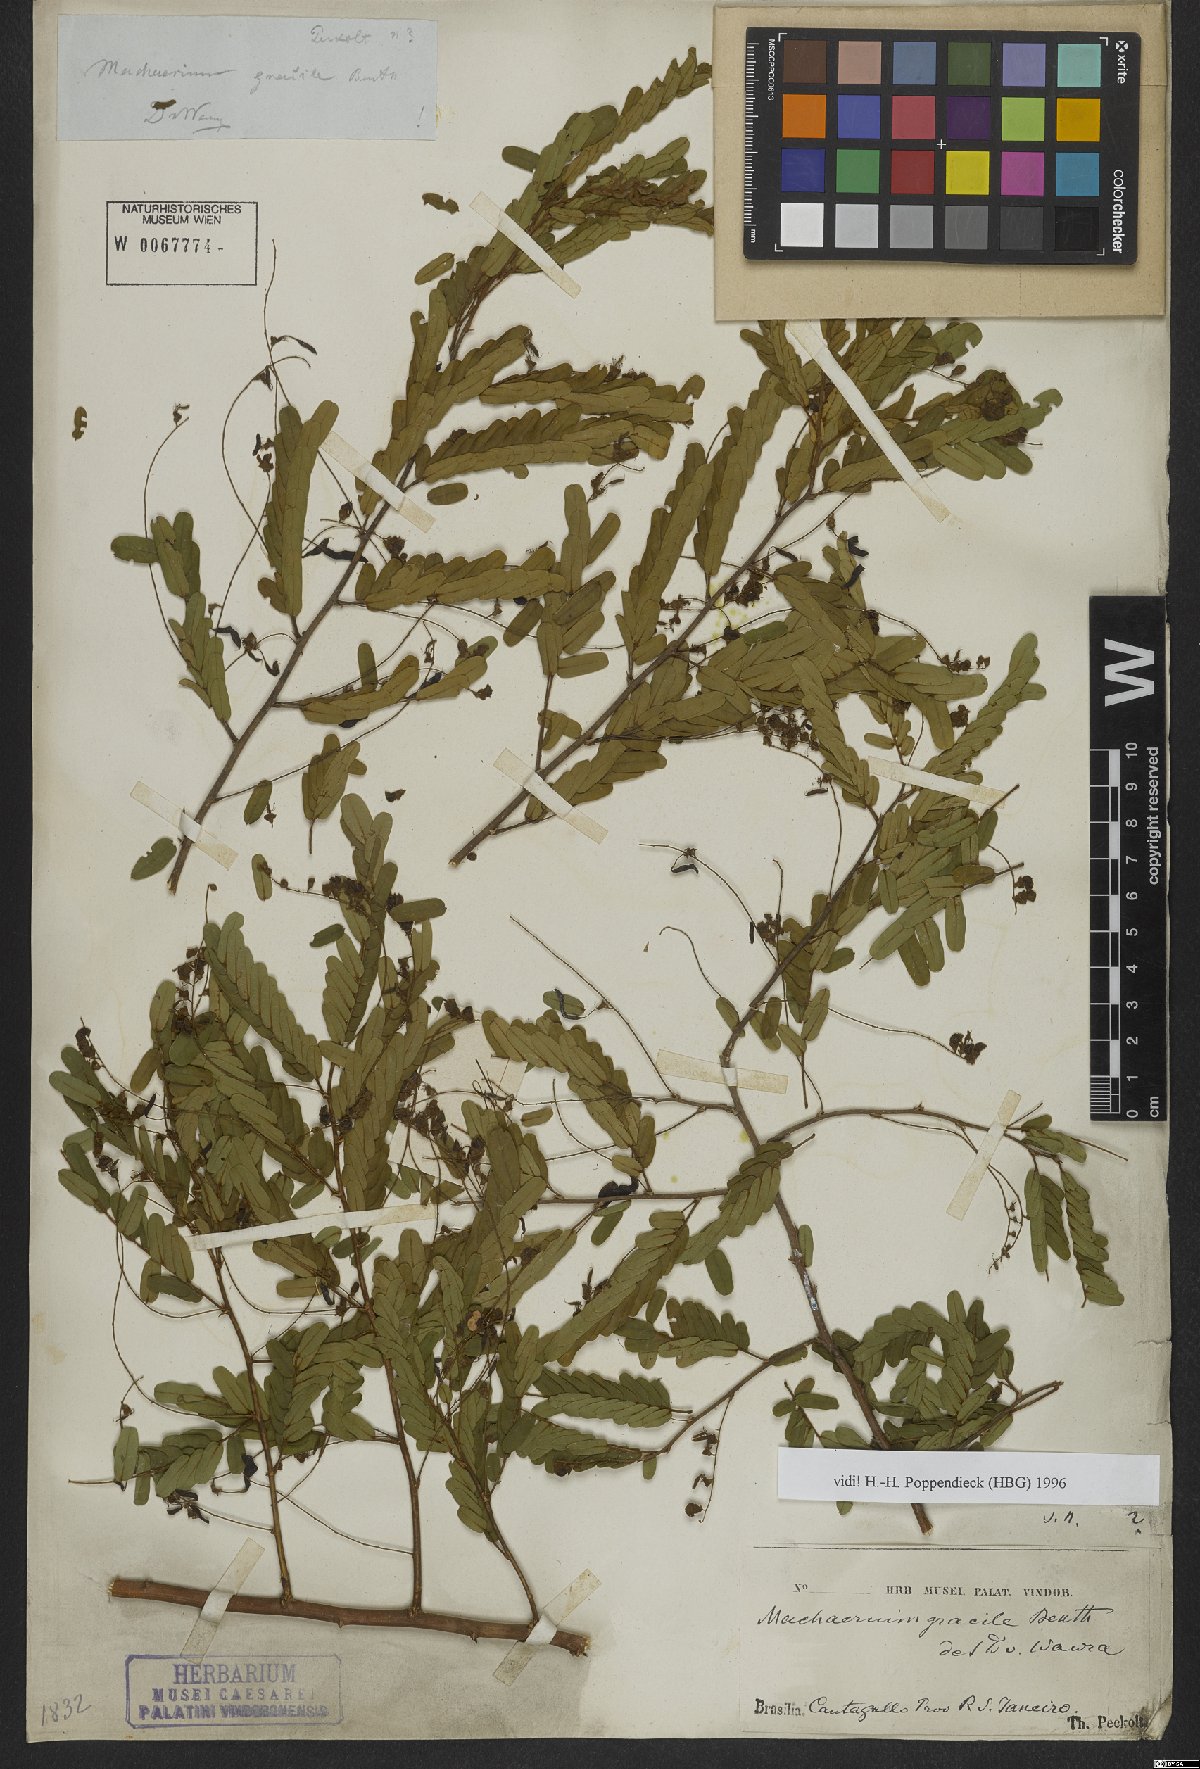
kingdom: Plantae
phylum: Tracheophyta
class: Magnoliopsida
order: Fabales
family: Fabaceae
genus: Machaerium
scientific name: Machaerium gracile
